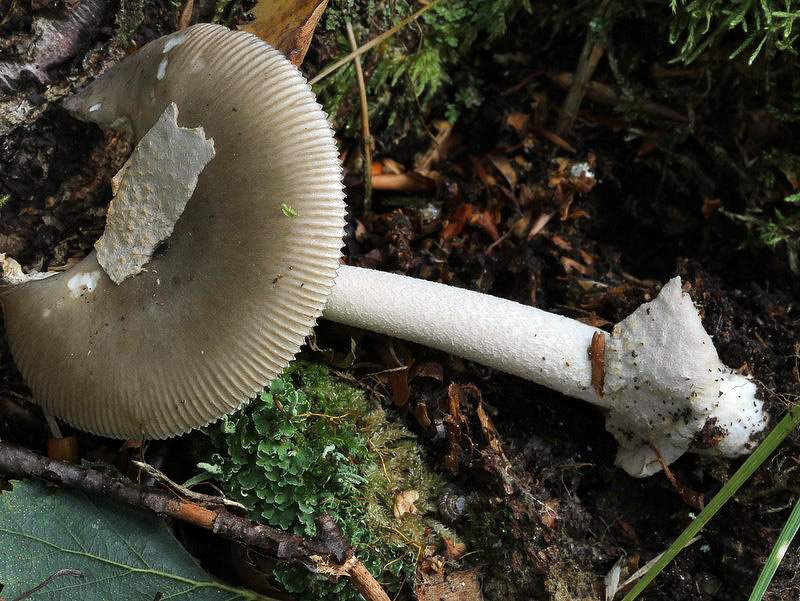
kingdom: Fungi
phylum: Basidiomycota
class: Agaricomycetes
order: Agaricales
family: Amanitaceae
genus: Amanita
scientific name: Amanita vaginata
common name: grå kam-fluesvamp
